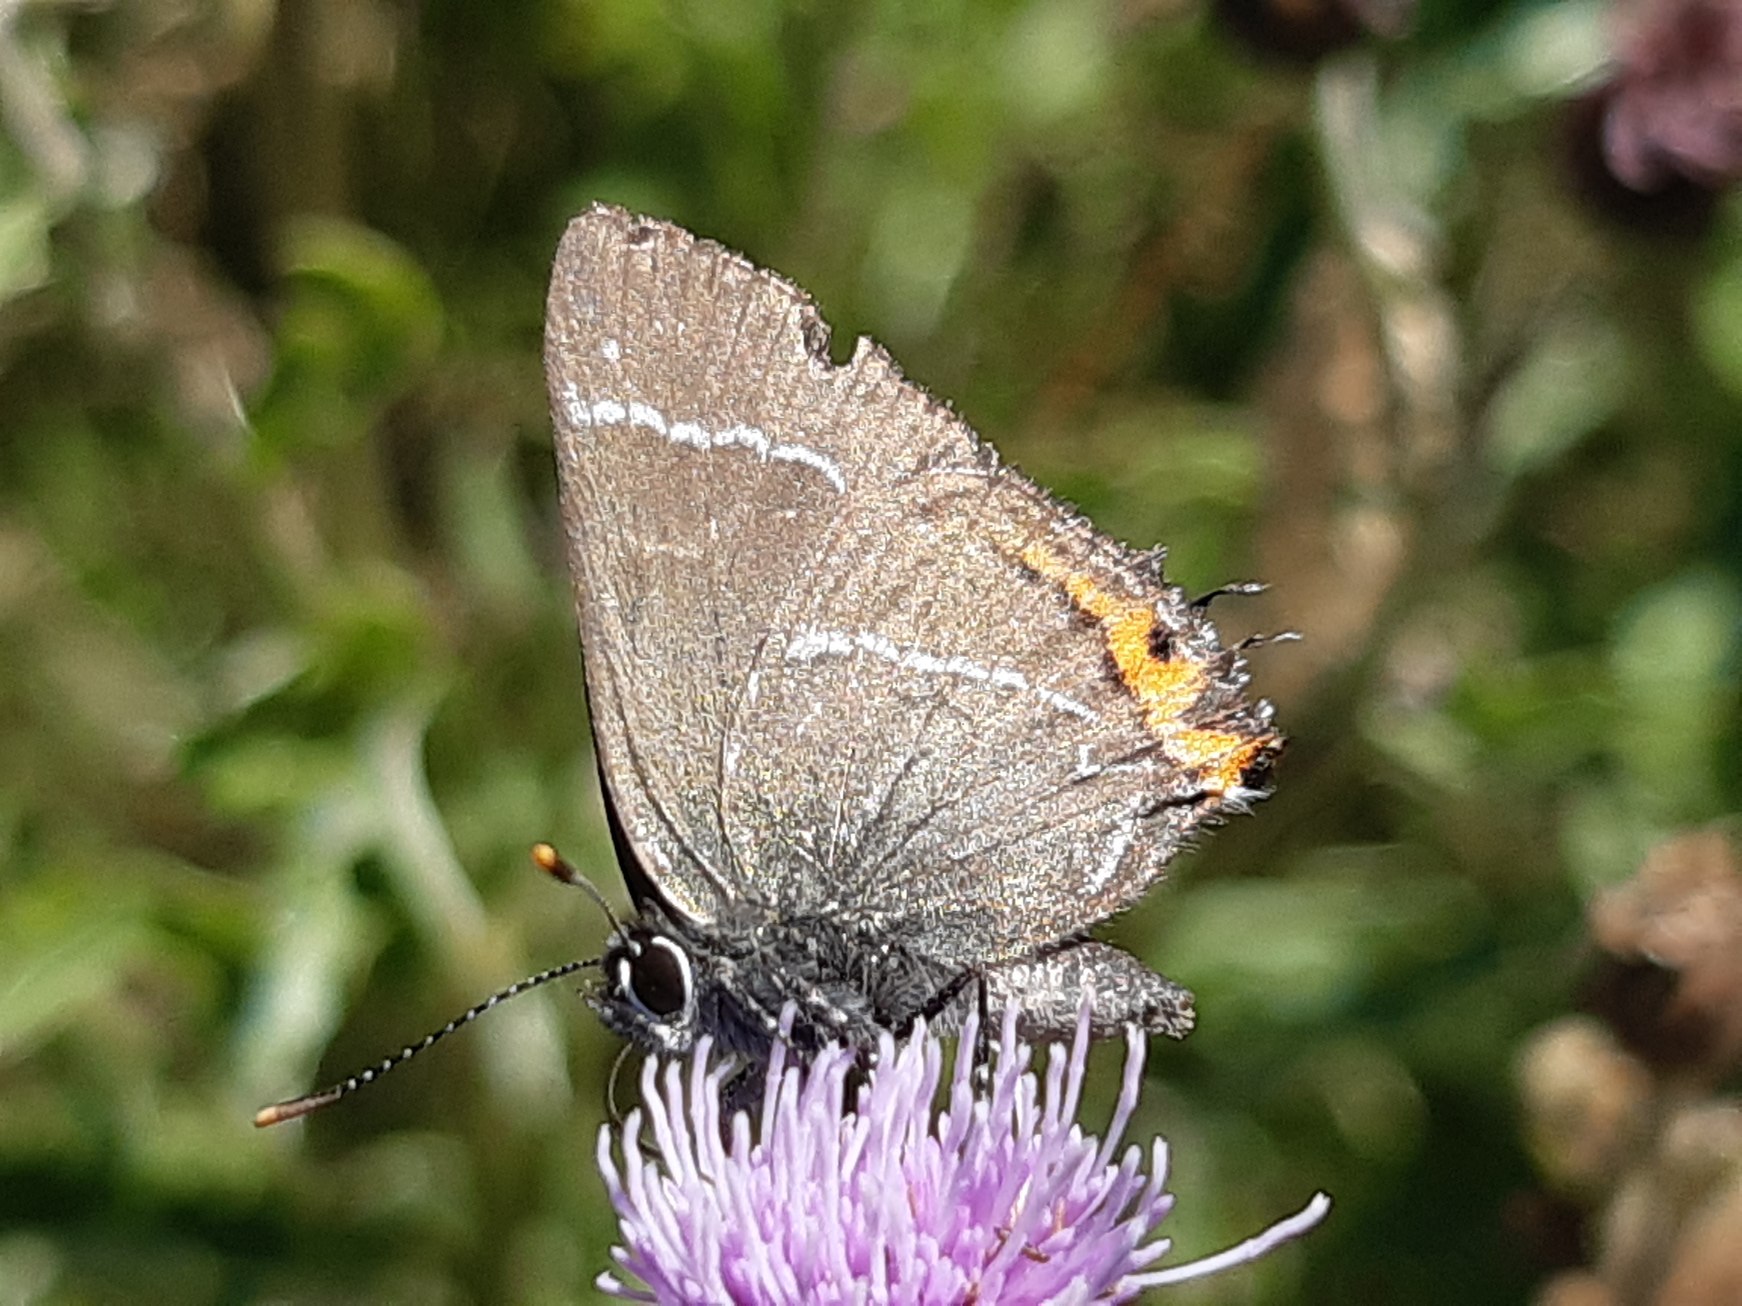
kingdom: Animalia
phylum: Arthropoda
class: Insecta
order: Lepidoptera
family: Lycaenidae
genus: Satyrium
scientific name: Satyrium w-album
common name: Det hvide W
